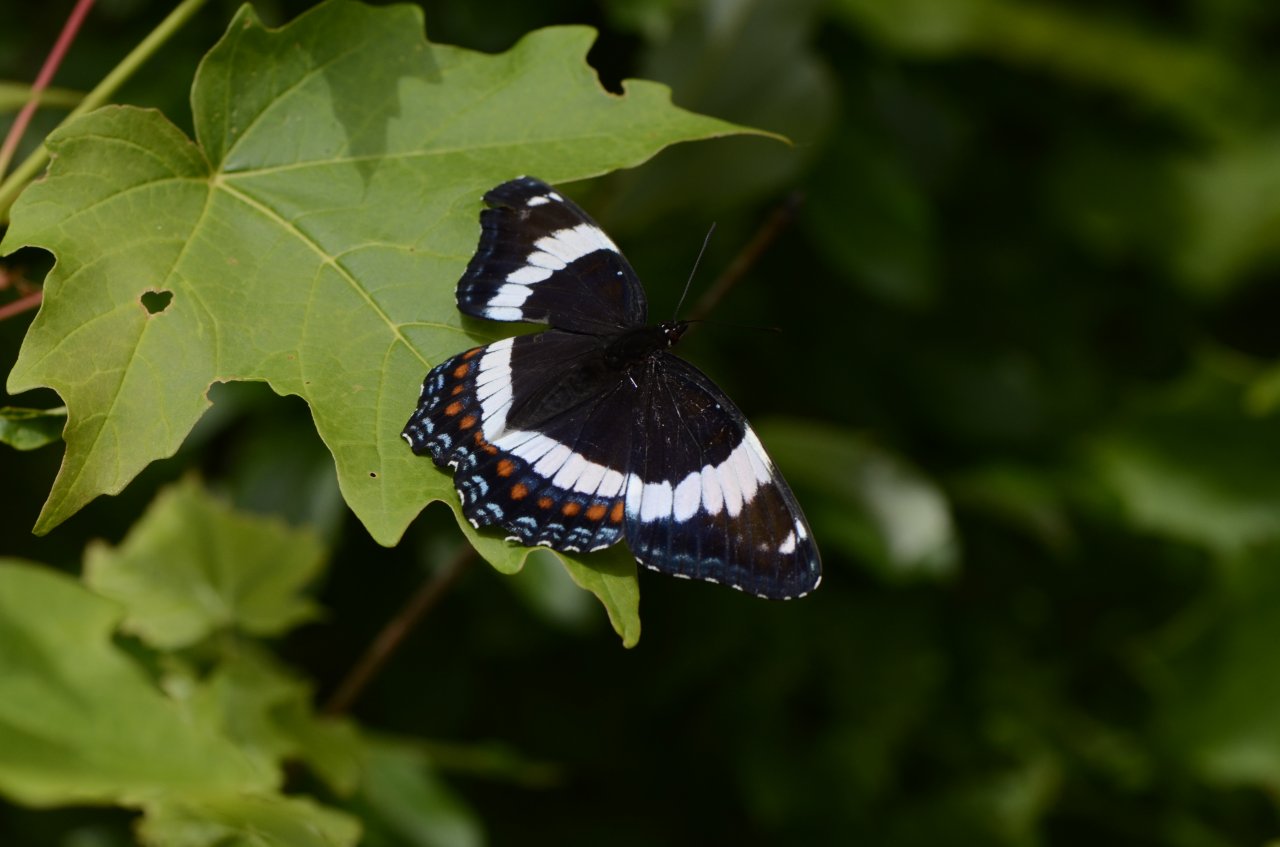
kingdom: Animalia
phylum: Arthropoda
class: Insecta
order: Lepidoptera
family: Nymphalidae
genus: Limenitis
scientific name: Limenitis arthemis
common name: Red-spotted Admiral
